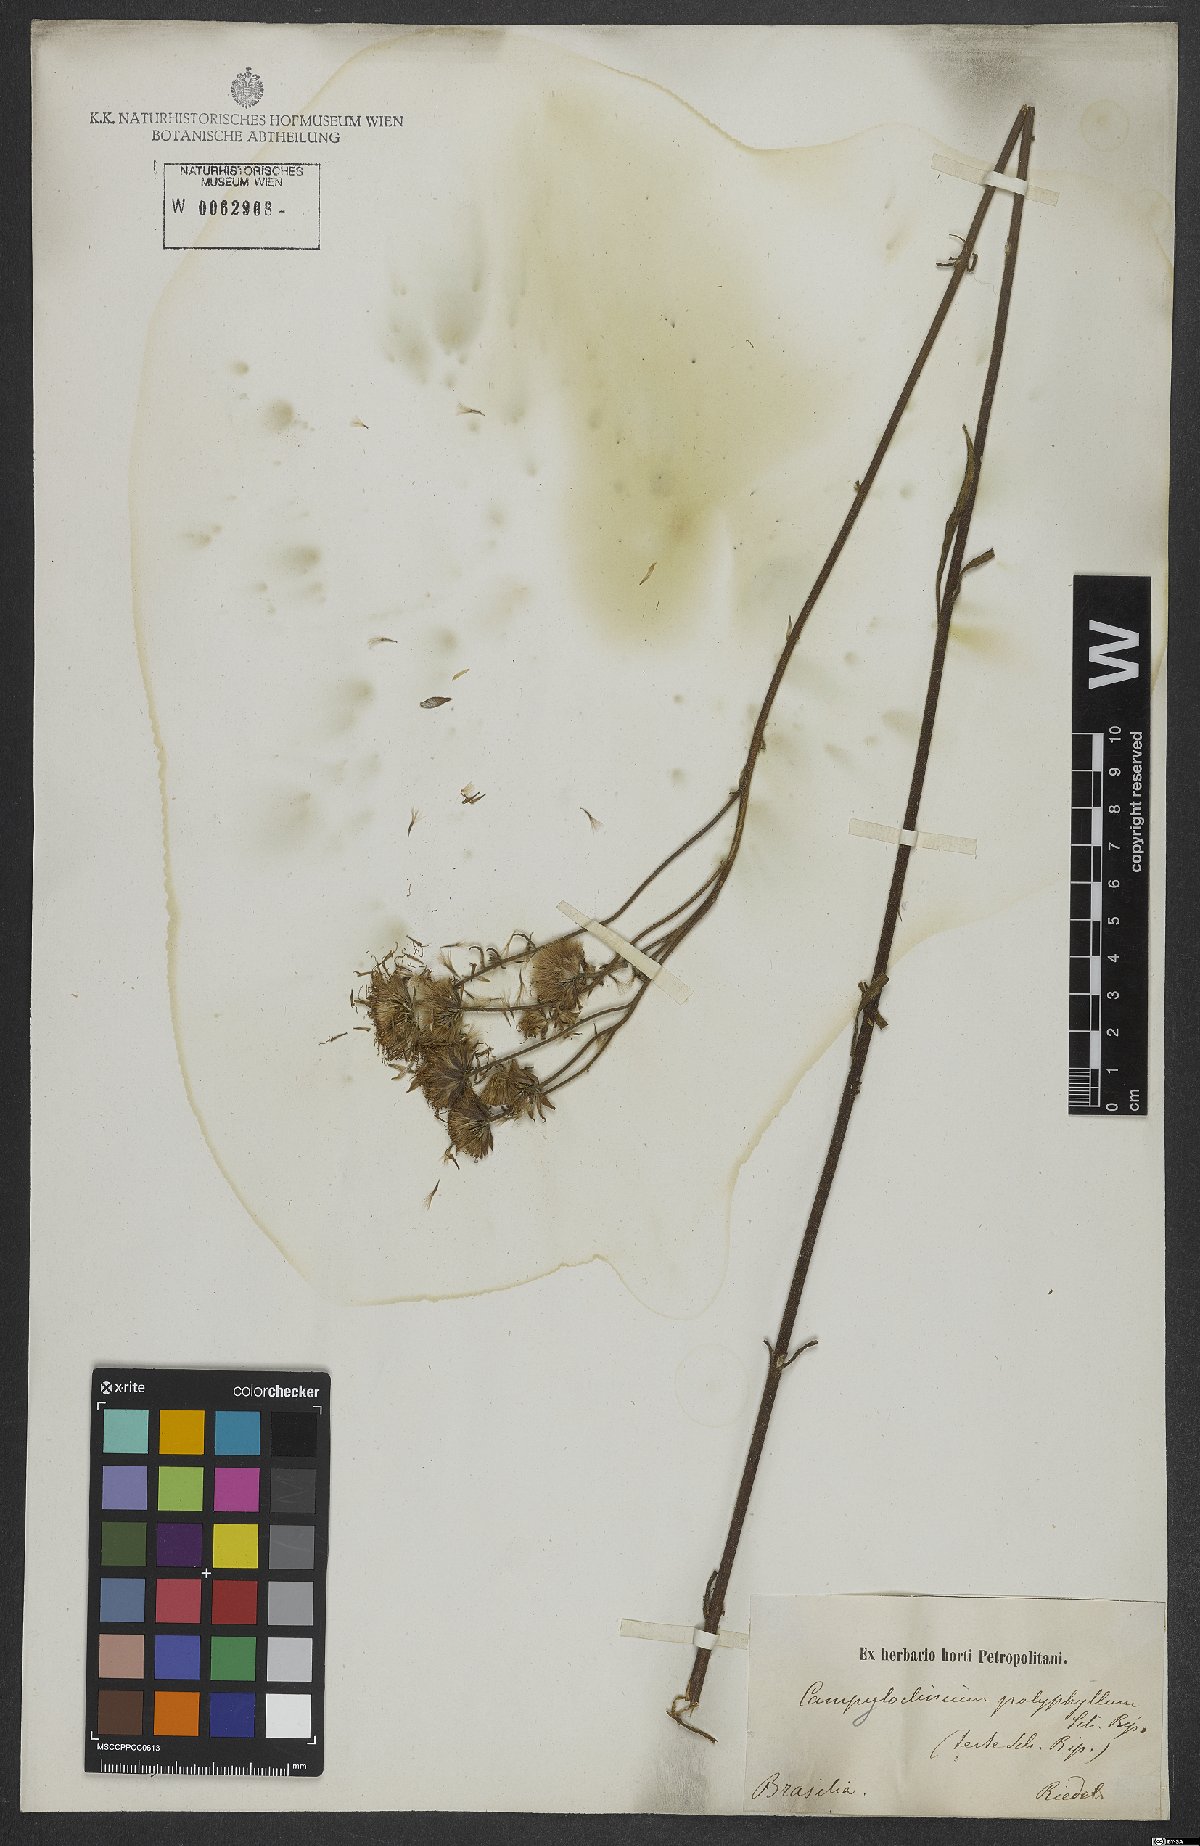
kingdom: Plantae
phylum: Tracheophyta
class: Magnoliopsida
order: Asterales
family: Asteraceae
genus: Campuloclinium
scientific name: Campuloclinium megacephalum
